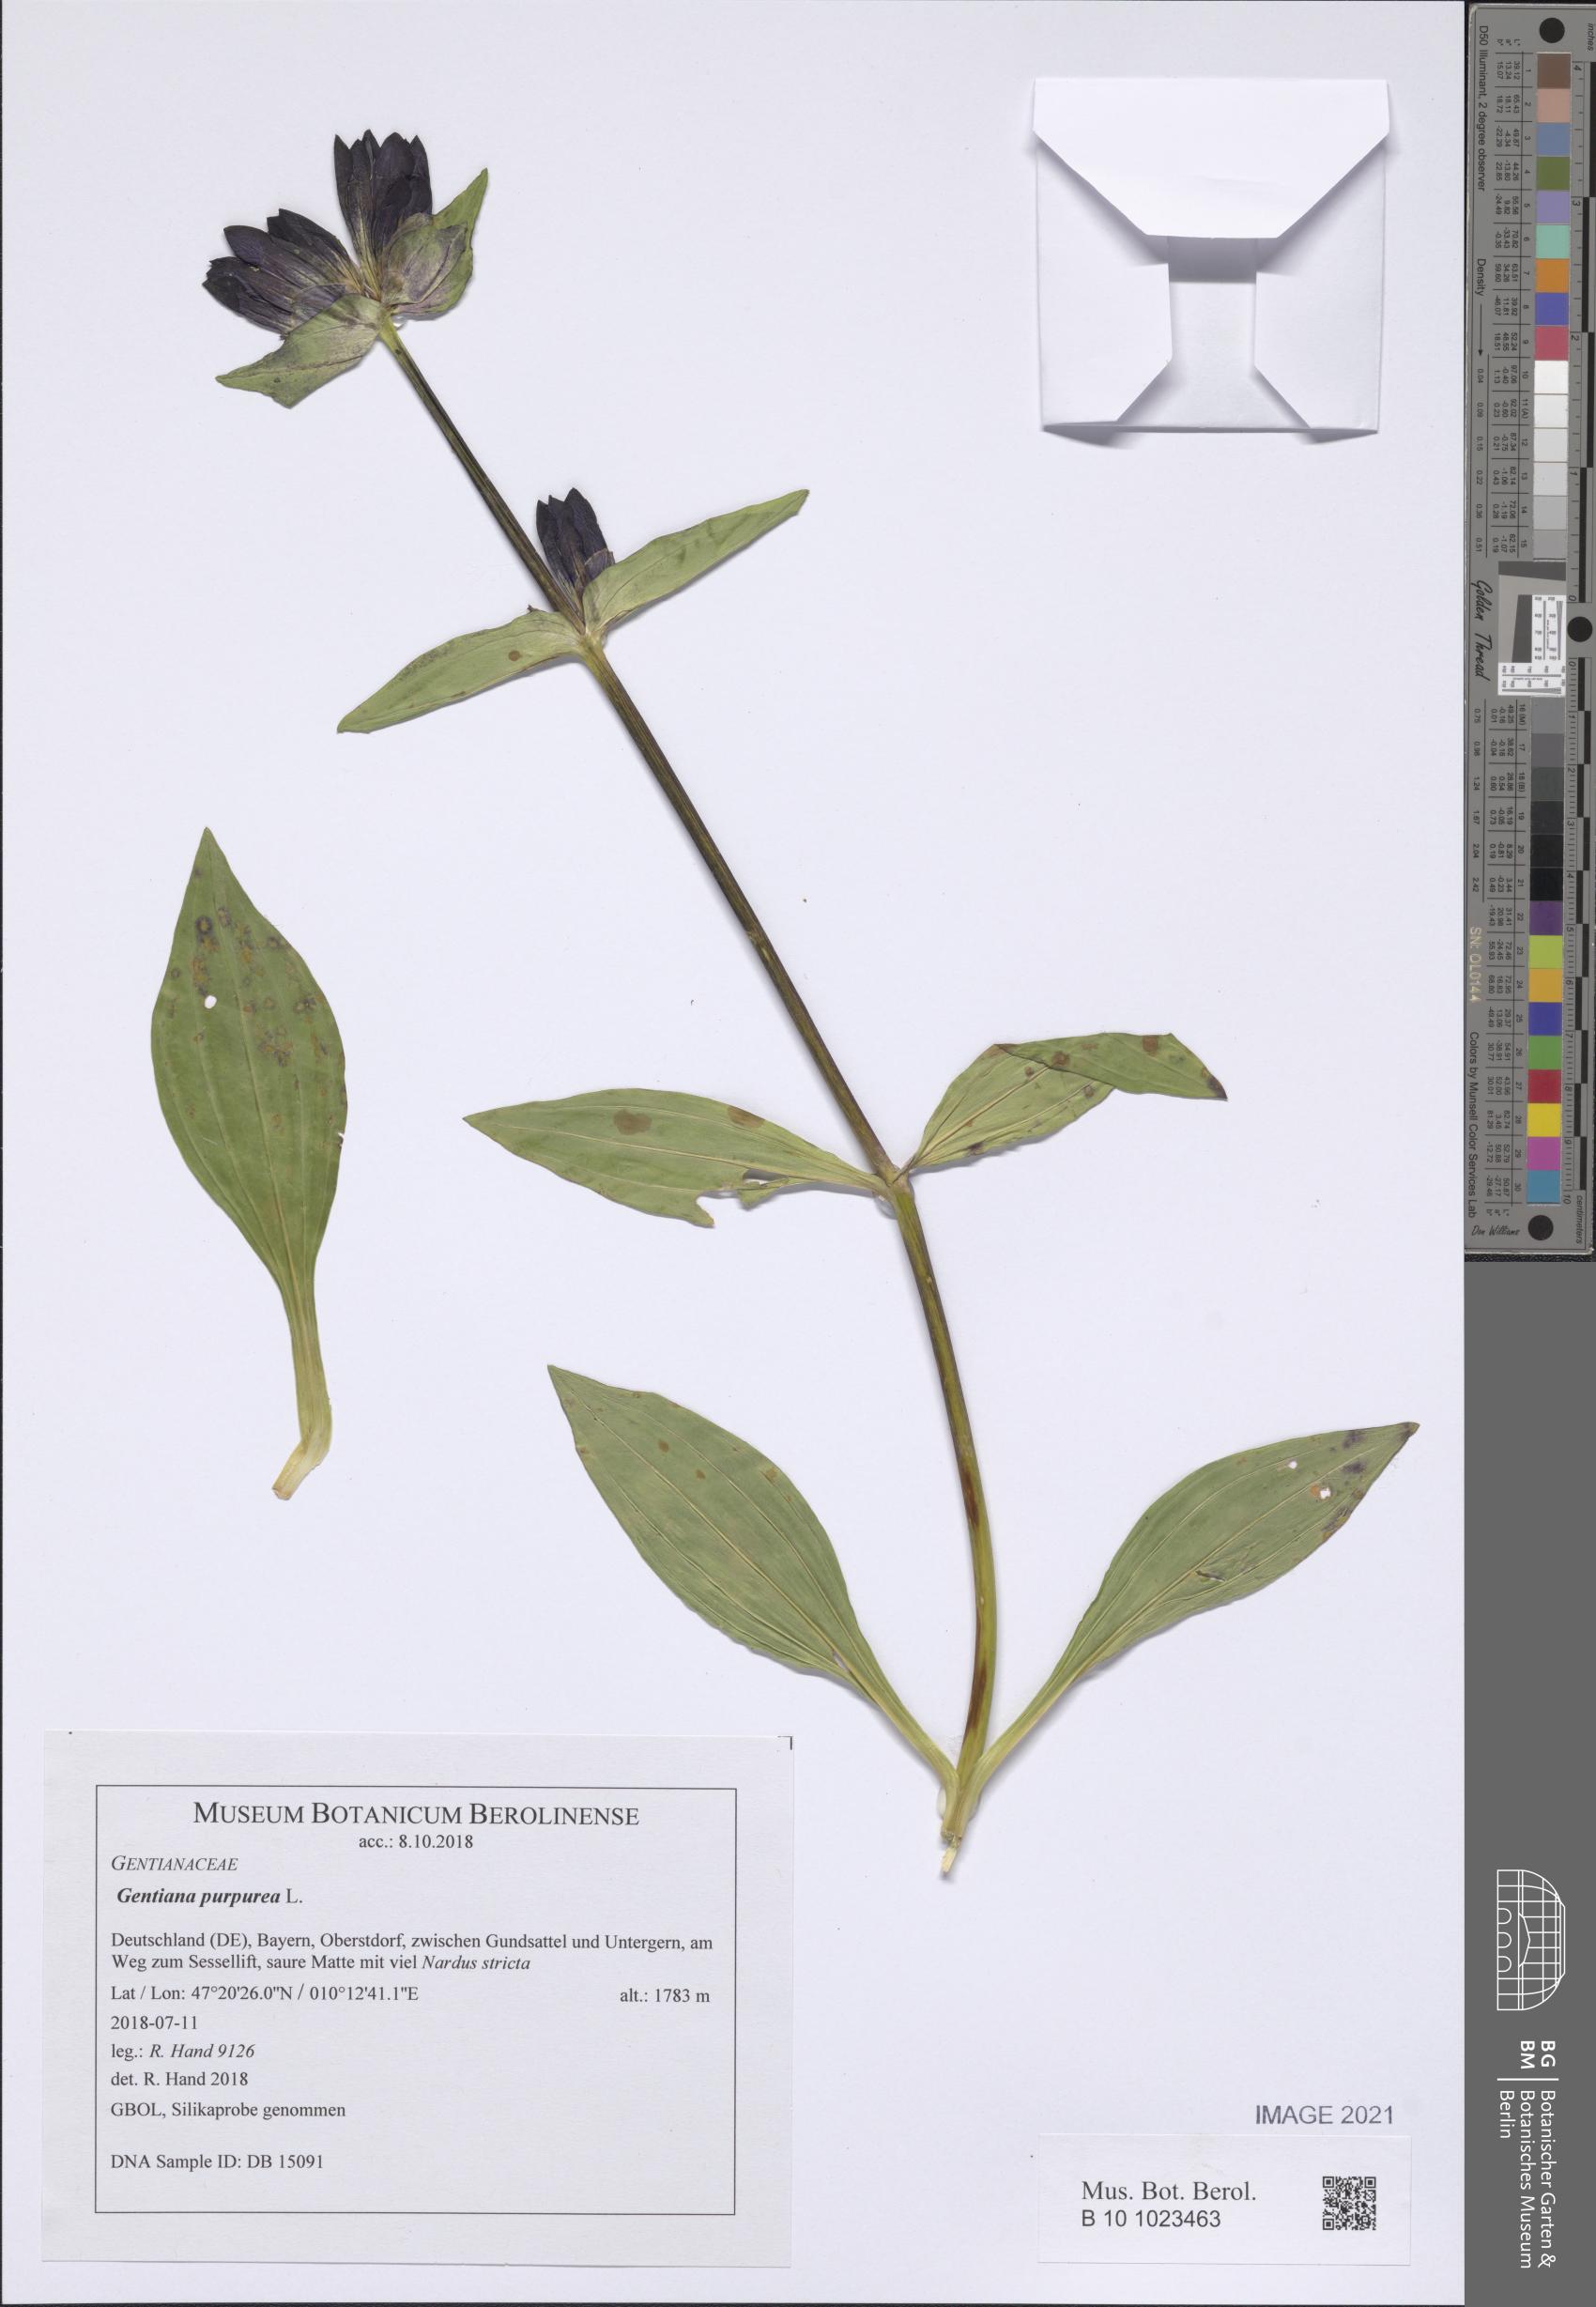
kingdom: Plantae
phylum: Tracheophyta
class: Magnoliopsida
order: Gentianales
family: Gentianaceae
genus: Gentiana
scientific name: Gentiana purpurea
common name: Purple gentian
